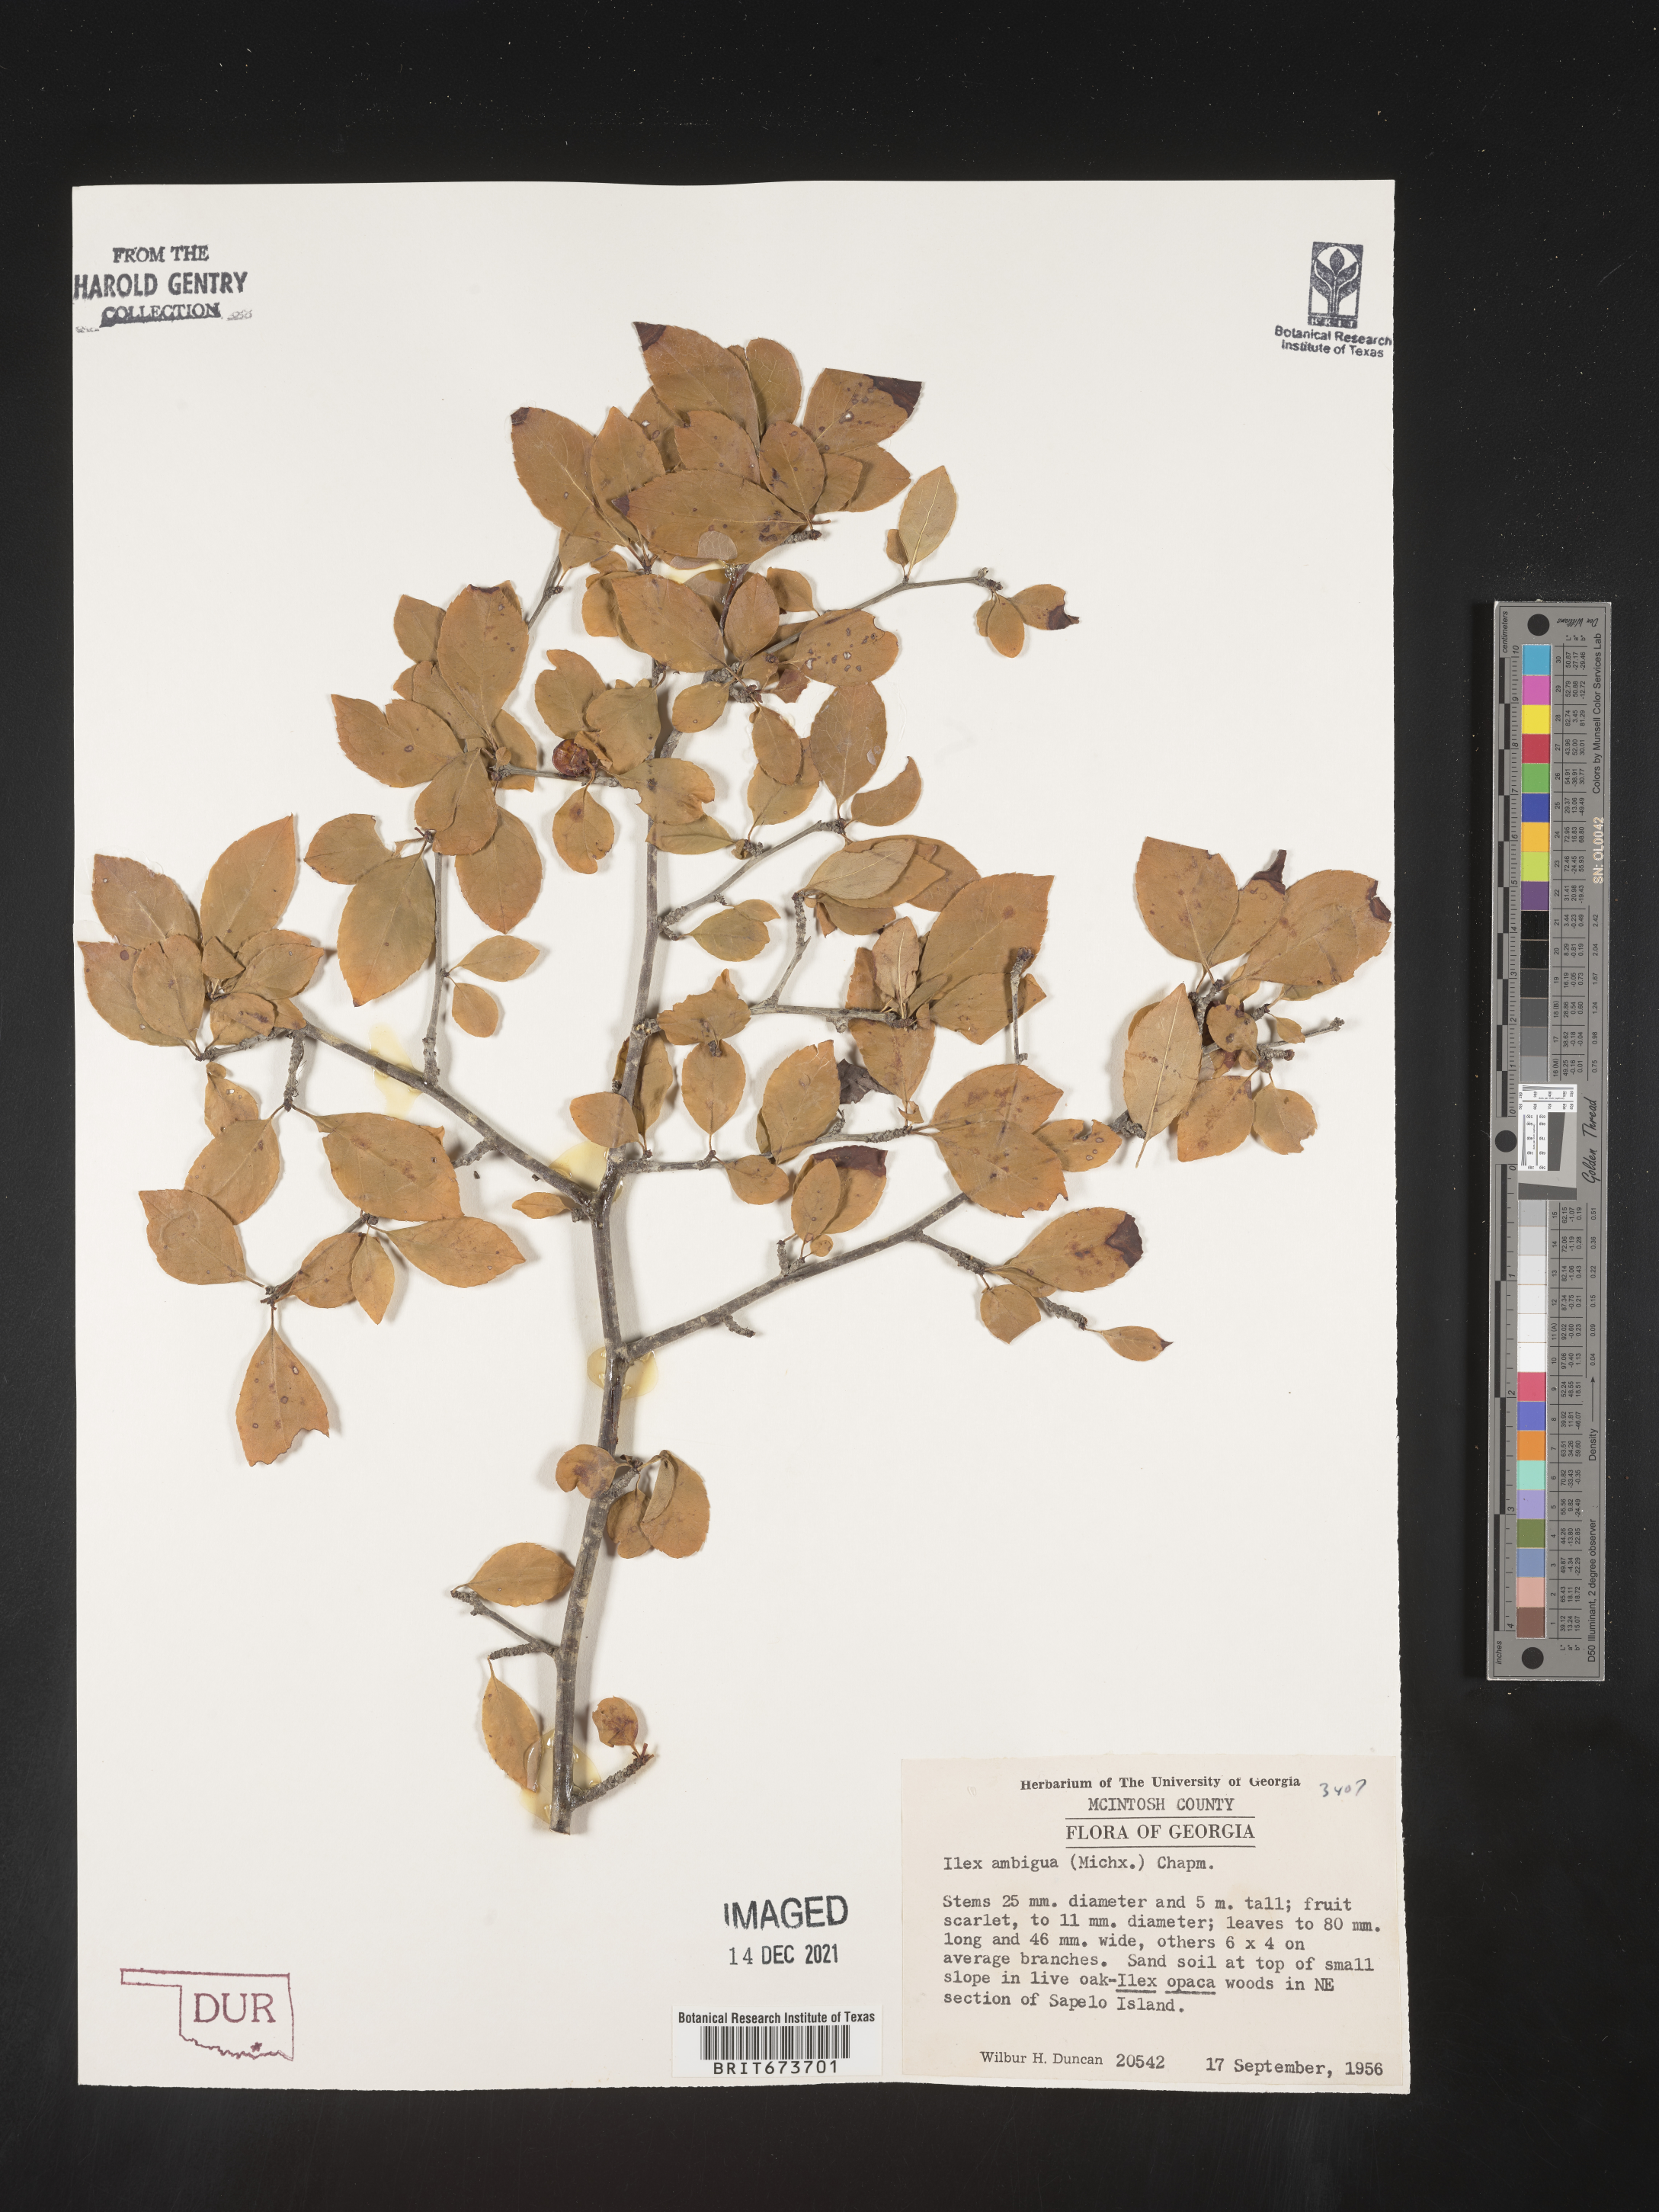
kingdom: Plantae
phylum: Tracheophyta
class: Magnoliopsida
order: Aquifoliales
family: Aquifoliaceae
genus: Ilex
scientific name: Ilex ambigua
